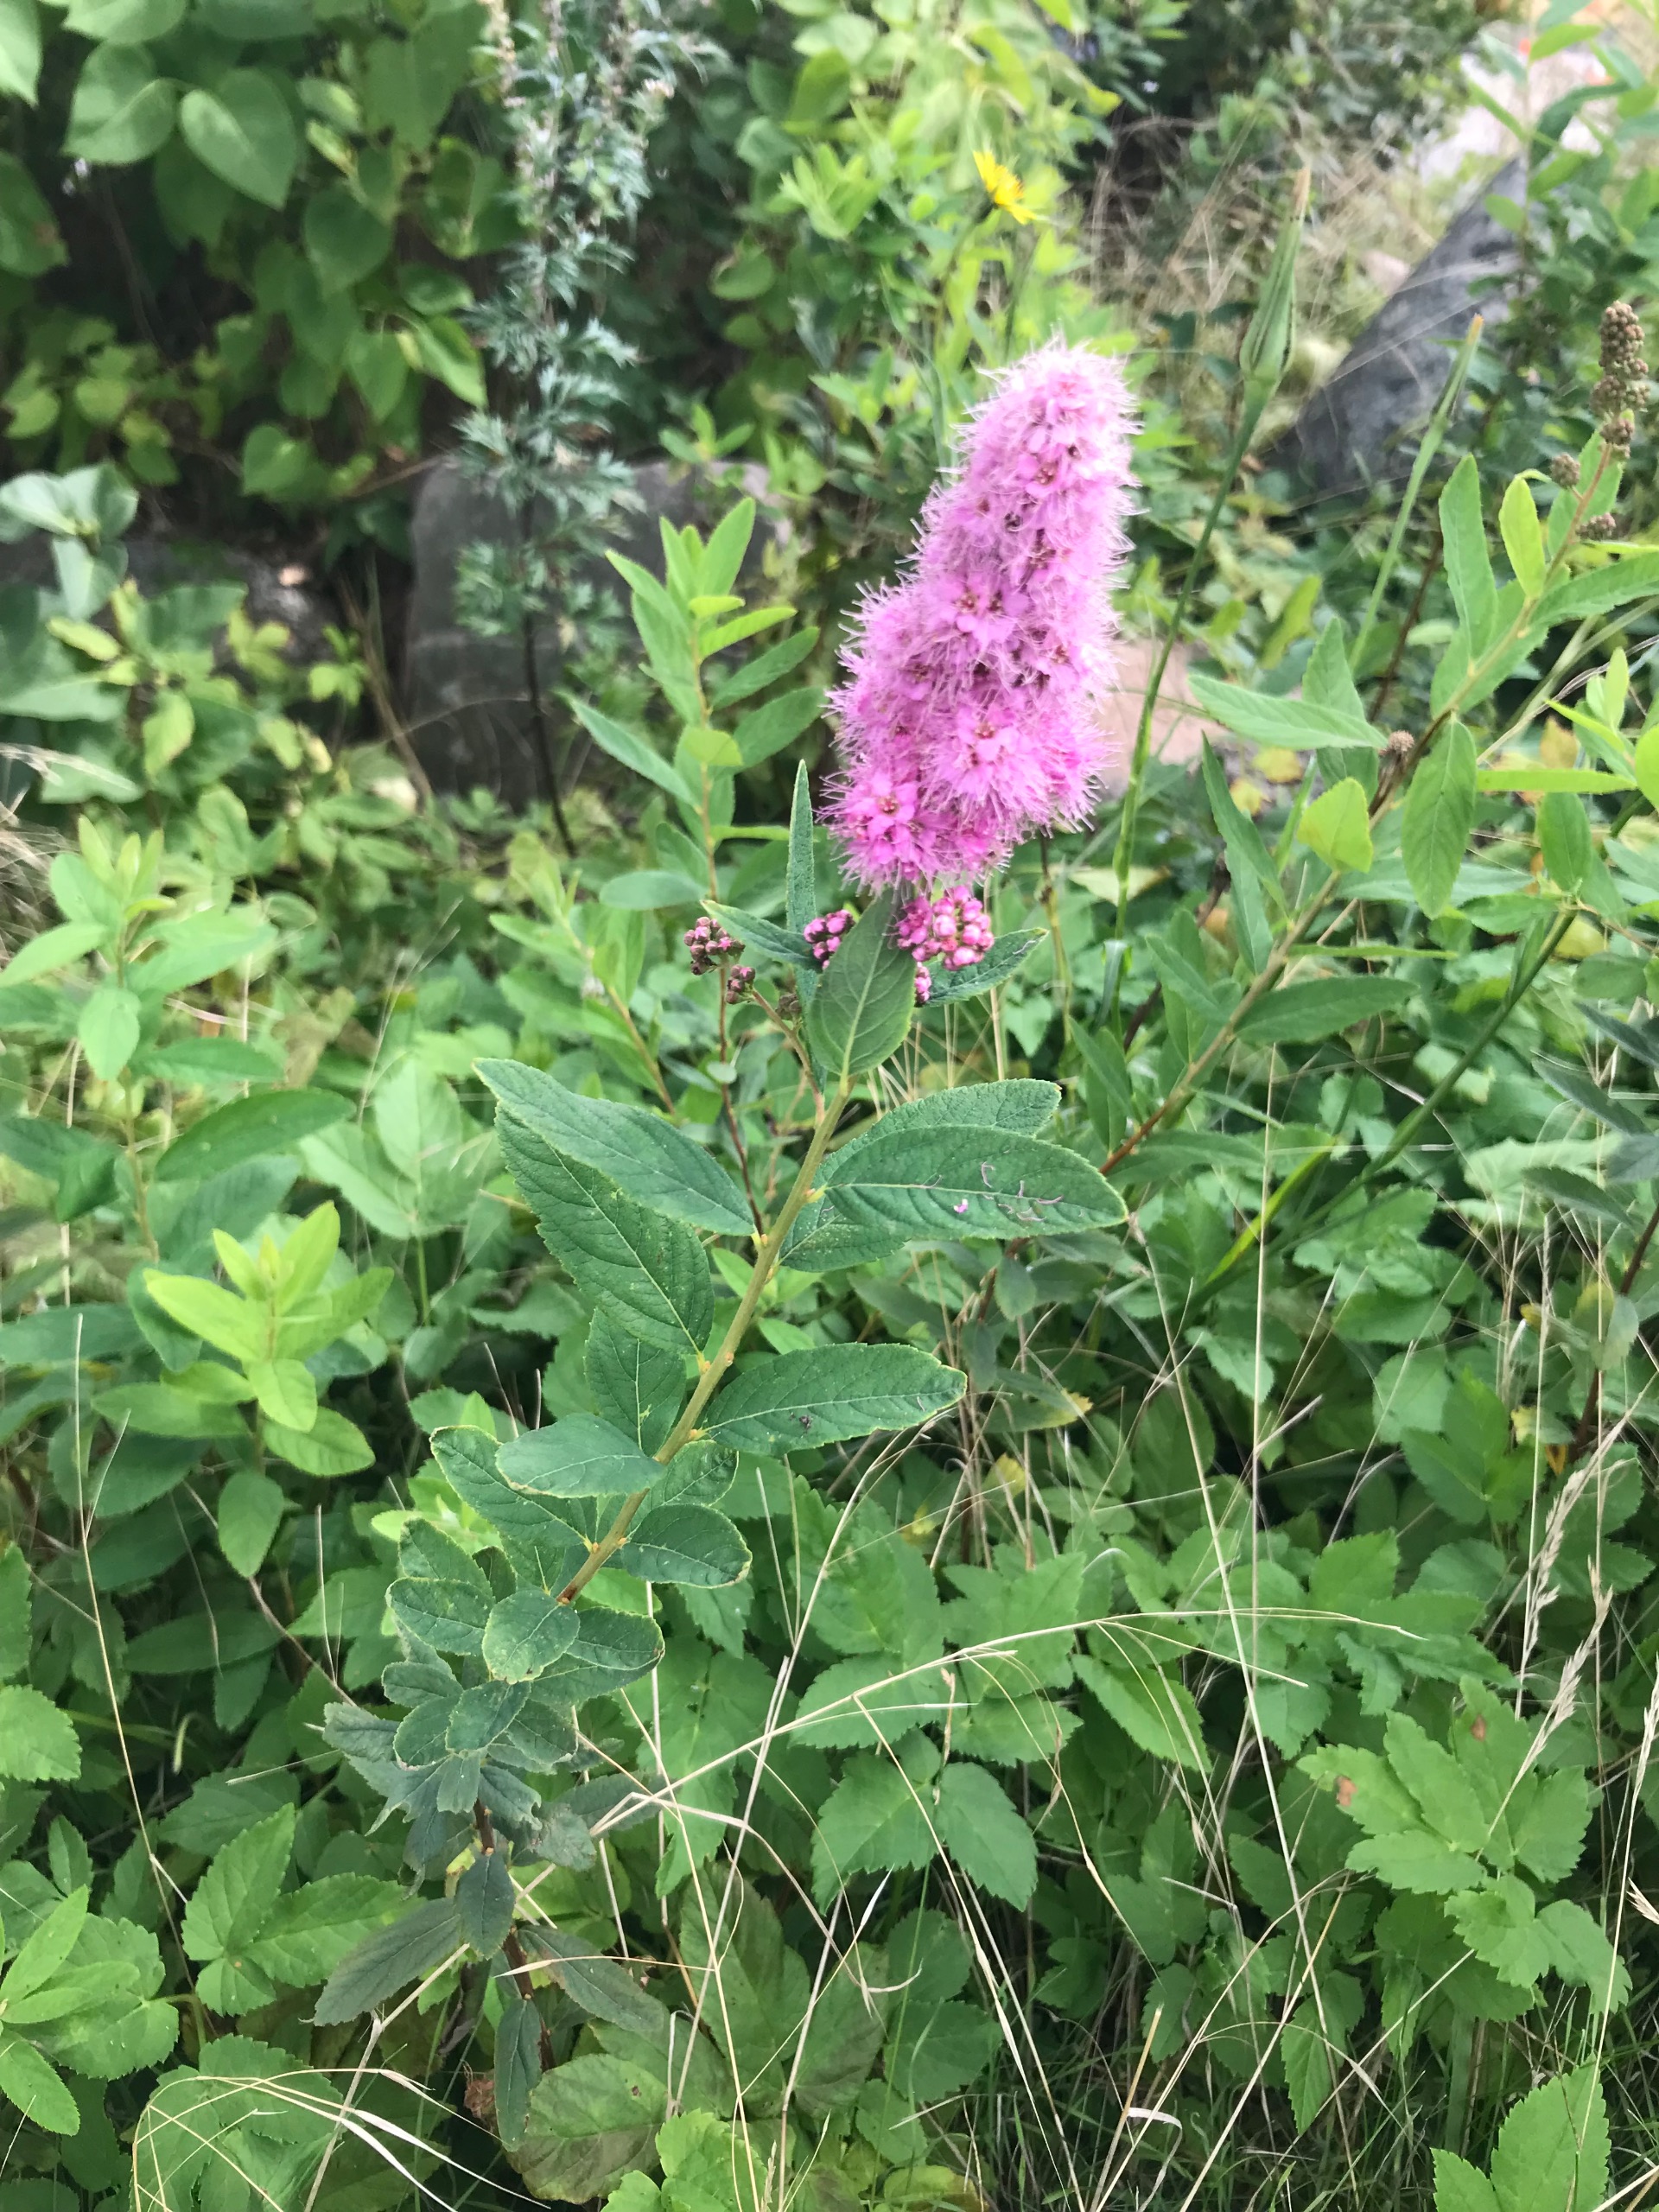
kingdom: Plantae
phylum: Tracheophyta
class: Magnoliopsida
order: Rosales
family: Rosaceae
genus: Spiraea
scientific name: Spiraea billardii
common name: Klase-spiræa
